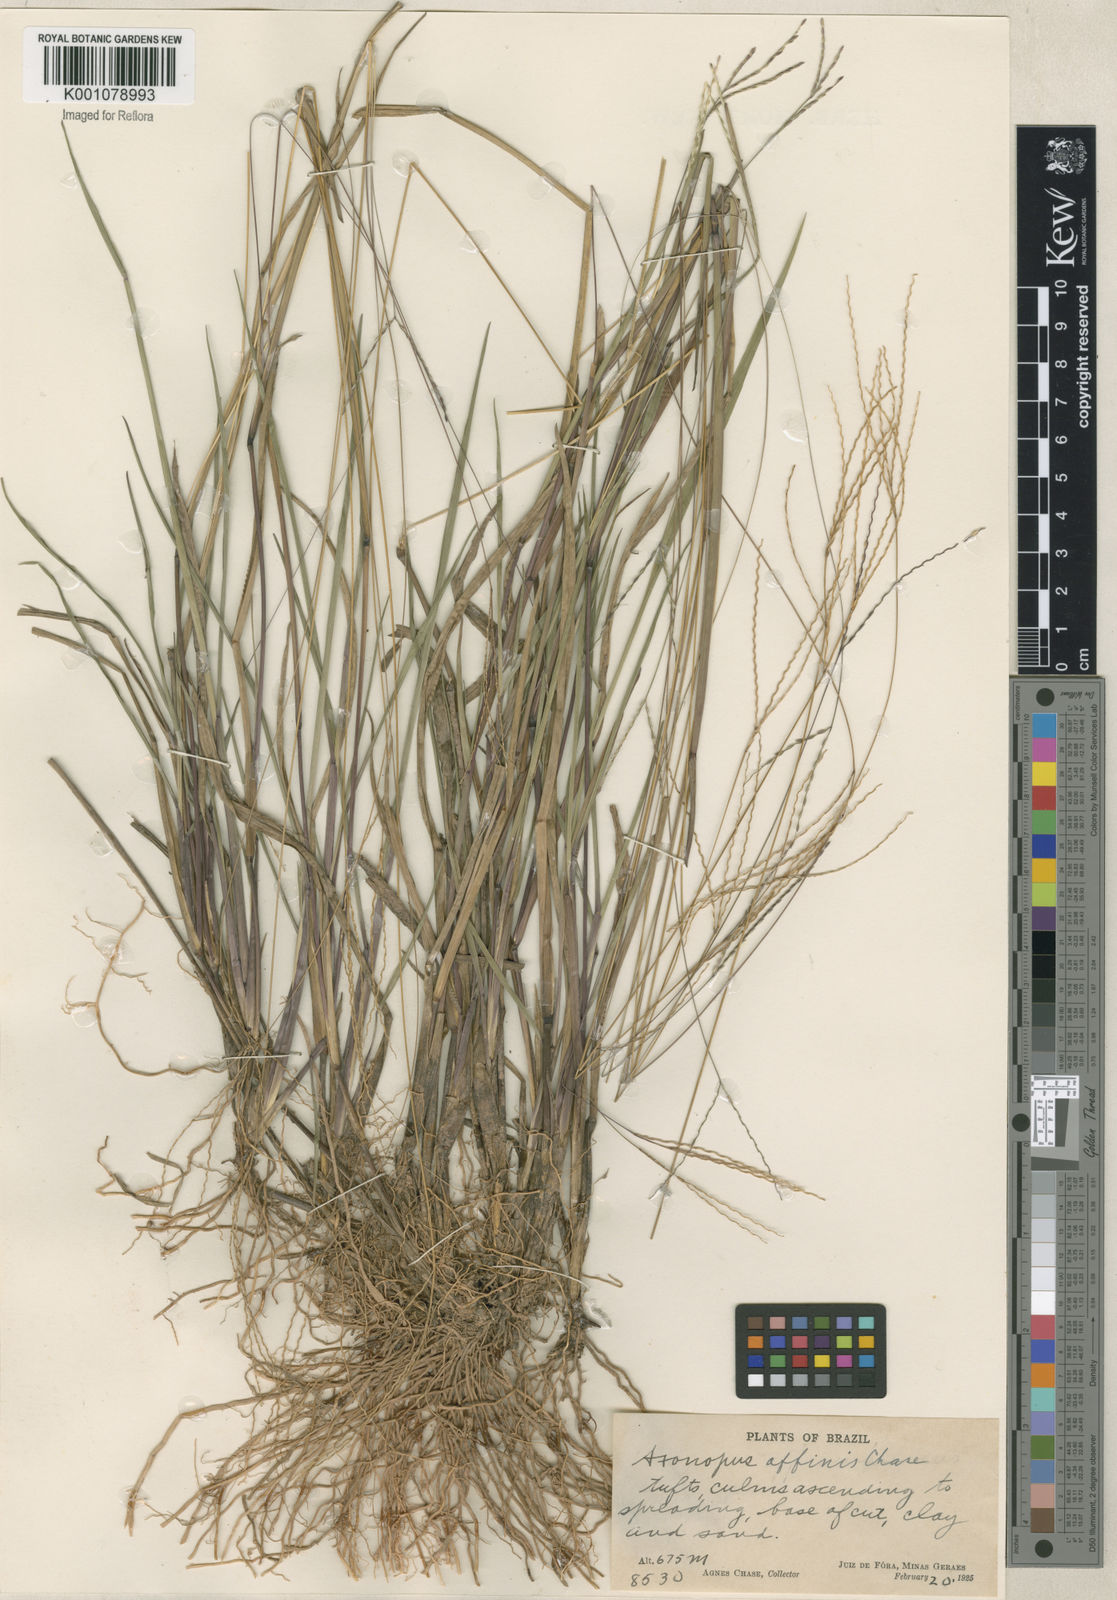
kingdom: Plantae
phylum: Tracheophyta
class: Liliopsida
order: Poales
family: Poaceae
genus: Axonopus
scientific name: Axonopus fissifolius
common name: Common carpetgrass
